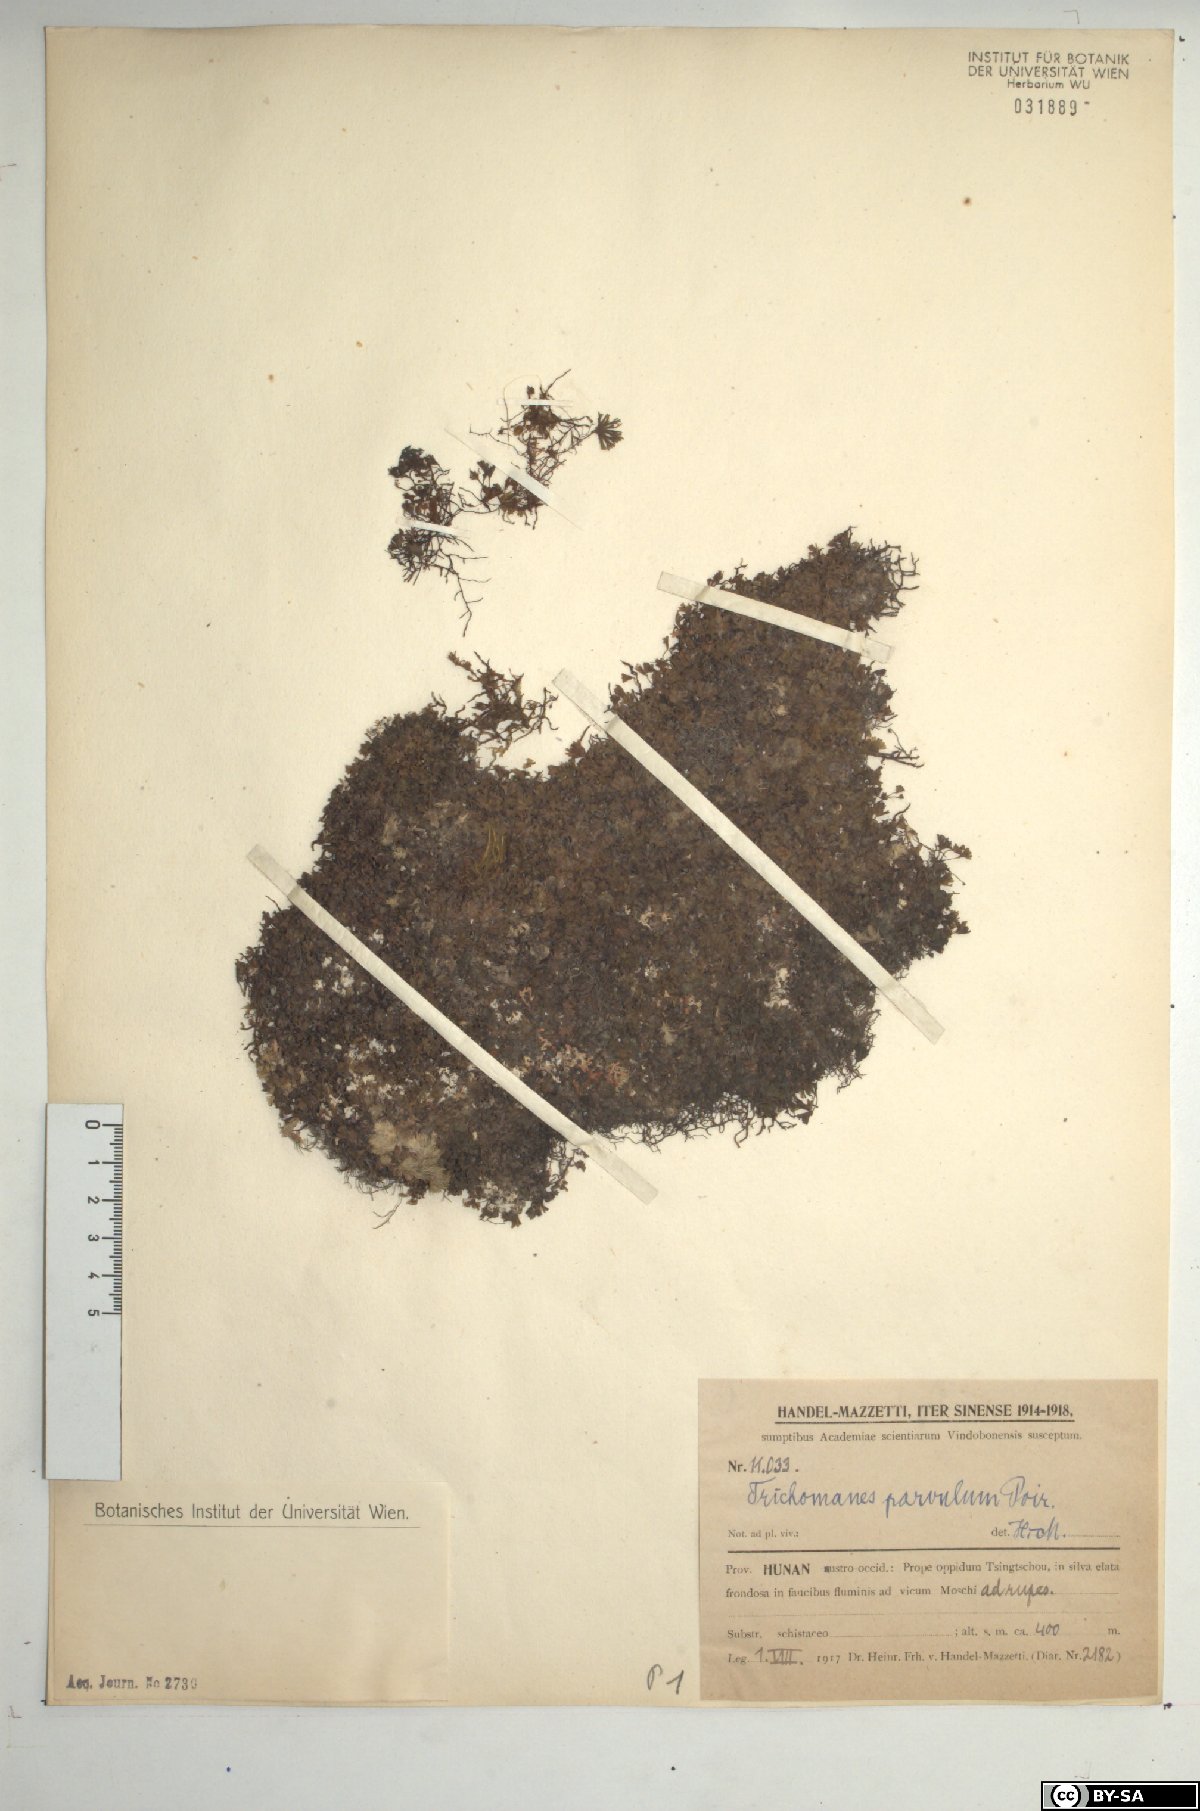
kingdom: Plantae
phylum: Tracheophyta
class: Polypodiopsida
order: Hymenophyllales
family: Hymenophyllaceae
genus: Crepidomanes
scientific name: Crepidomanes parvulum
